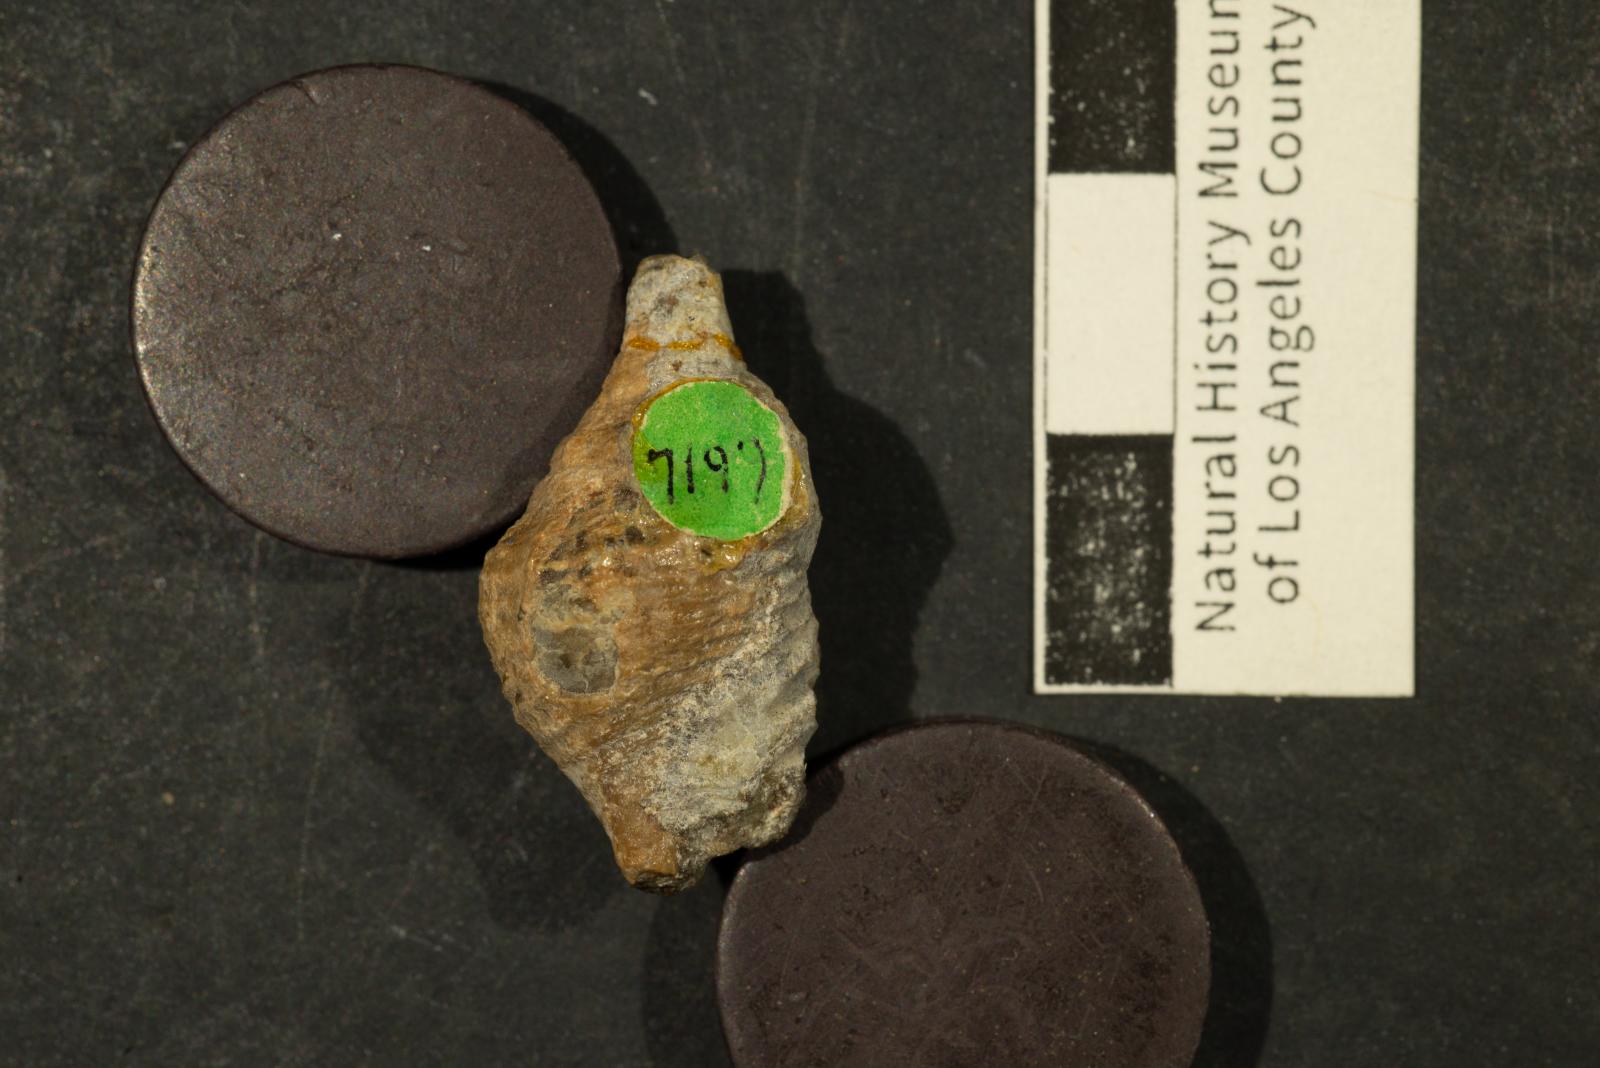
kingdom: Animalia
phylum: Mollusca
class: Gastropoda
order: Neogastropoda
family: Buccinidae
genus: Pentzia
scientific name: Pentzia Fulgur hilgardi
